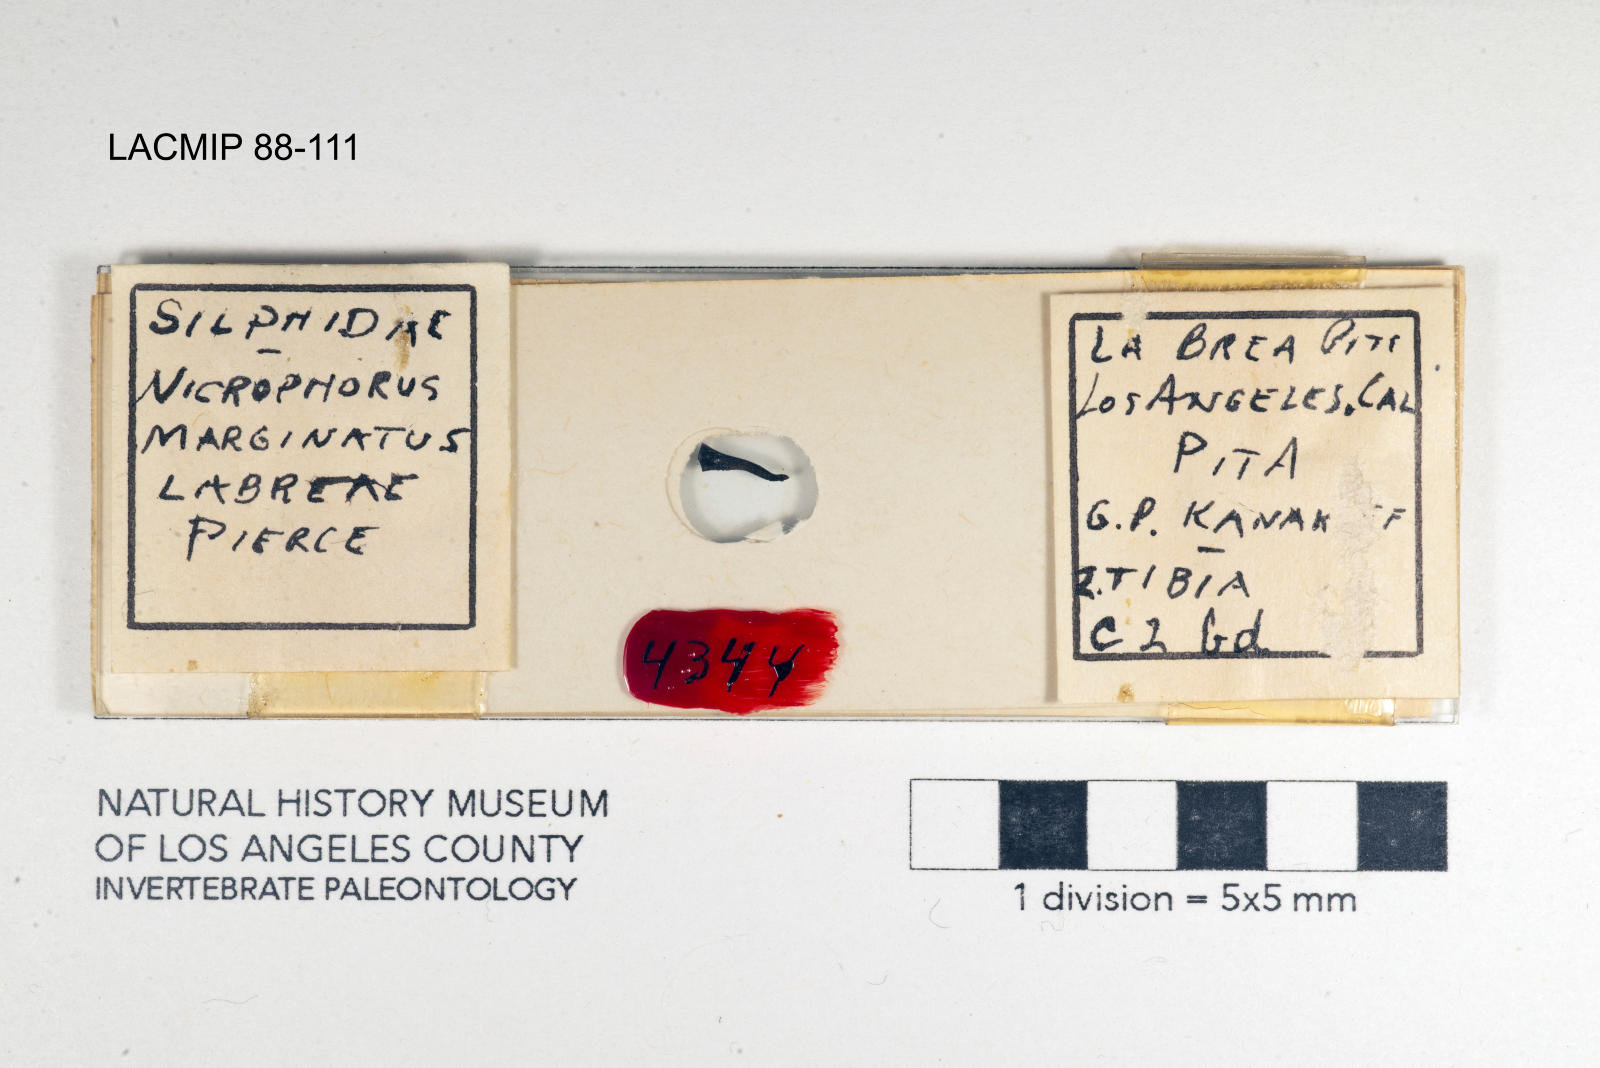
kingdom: Animalia
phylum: Arthropoda
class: Insecta
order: Coleoptera
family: Staphylinidae
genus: Nicrophorus
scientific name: Nicrophorus marginatus
